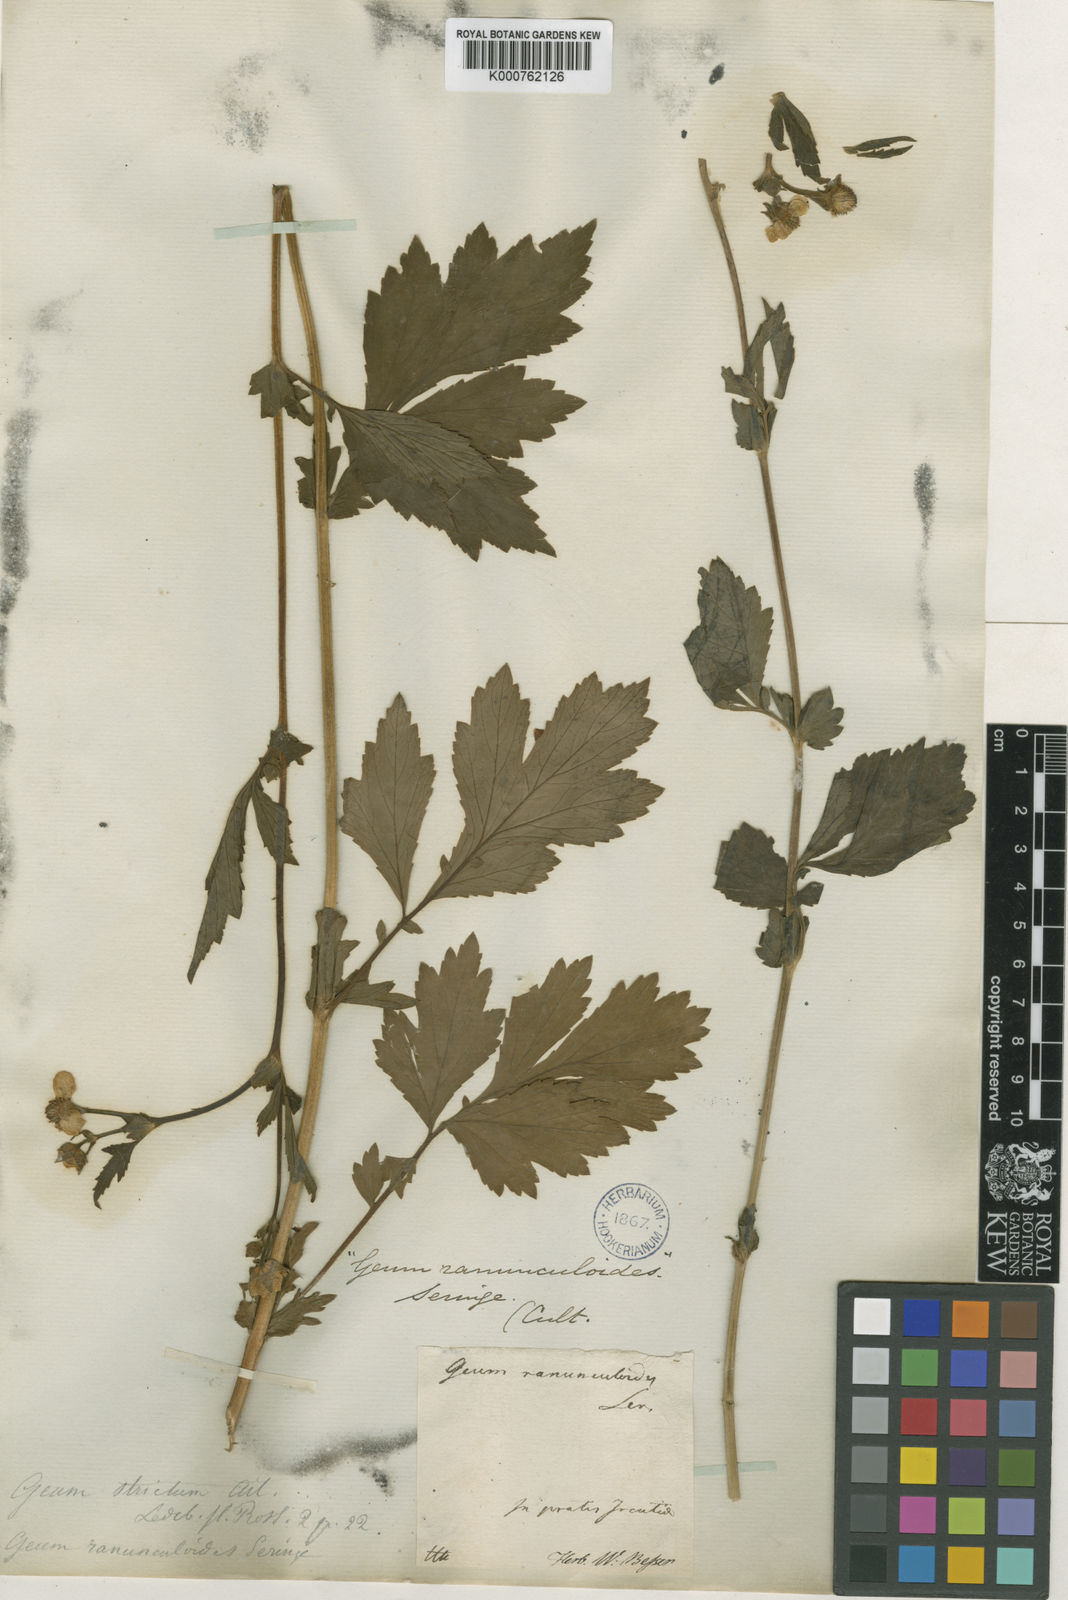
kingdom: Plantae
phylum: Tracheophyta
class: Magnoliopsida
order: Rosales
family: Rosaceae
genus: Geum
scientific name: Geum aleppicum
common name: Yellow avens
